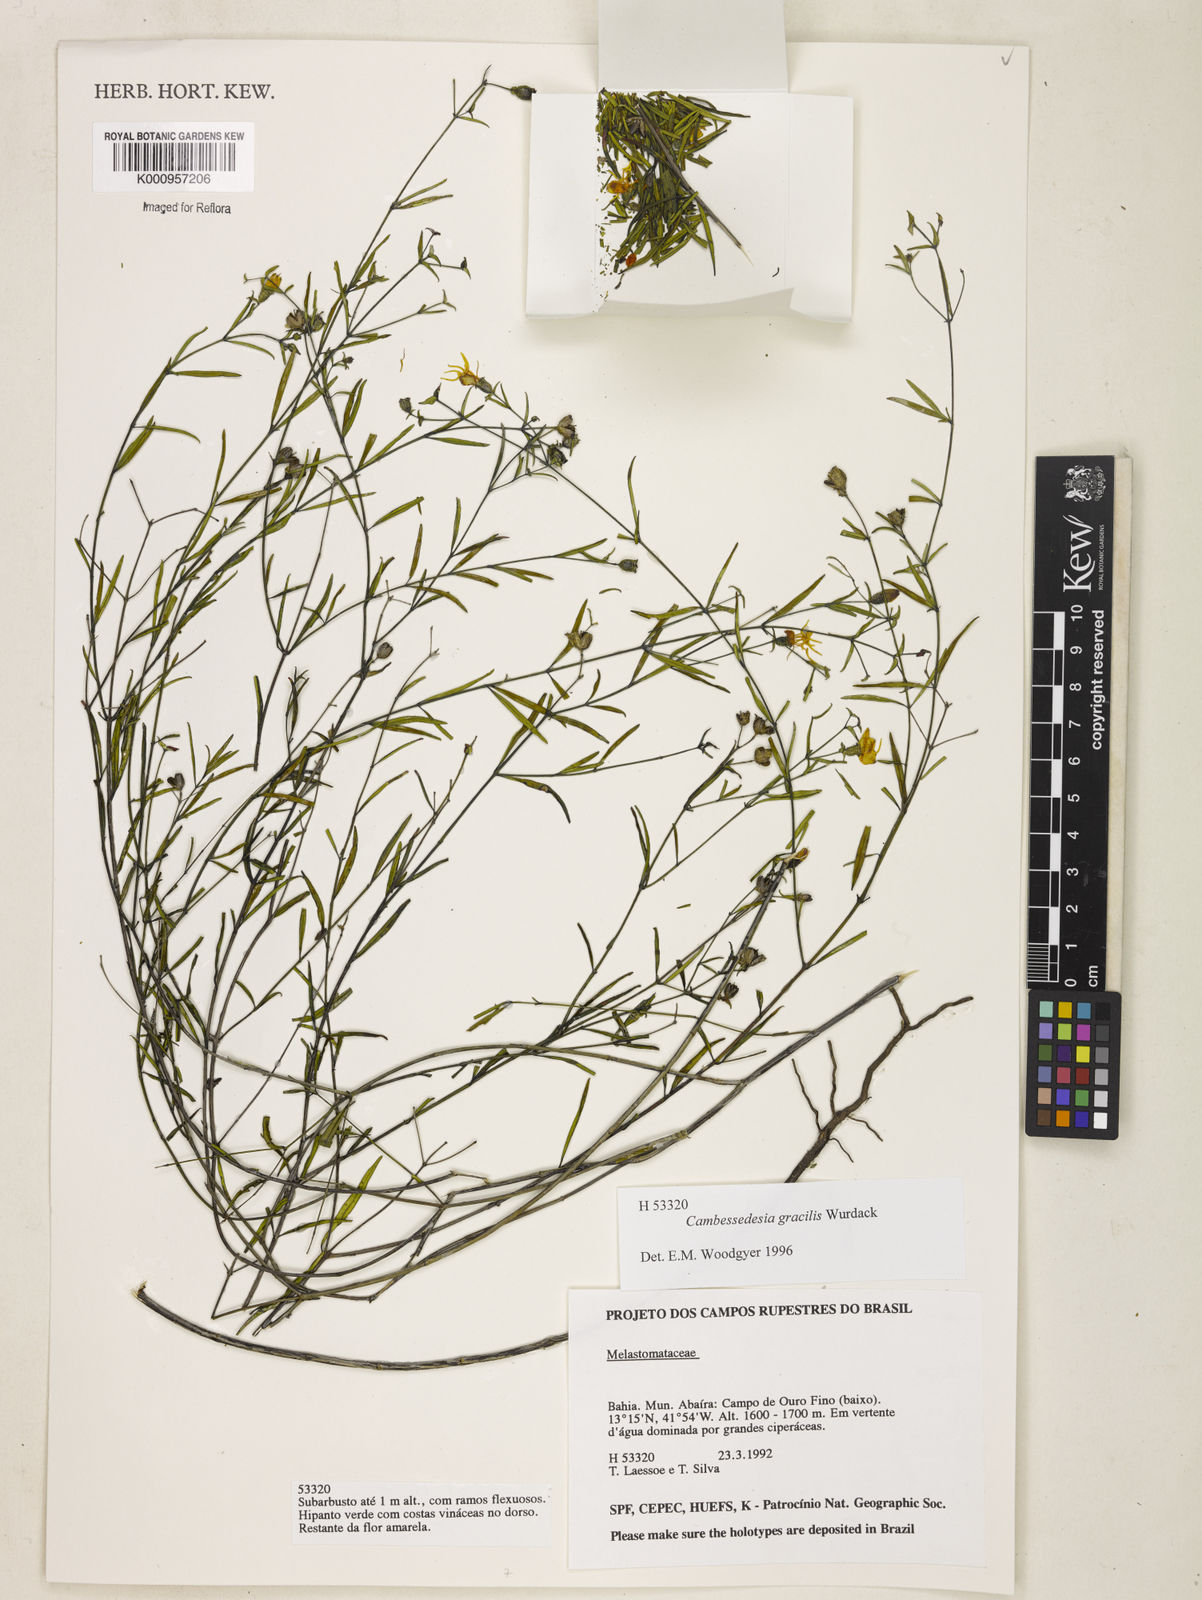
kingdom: Plantae
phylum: Tracheophyta
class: Magnoliopsida
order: Myrtales
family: Melastomataceae
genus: Cambessedesia
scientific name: Cambessedesia gracilis
